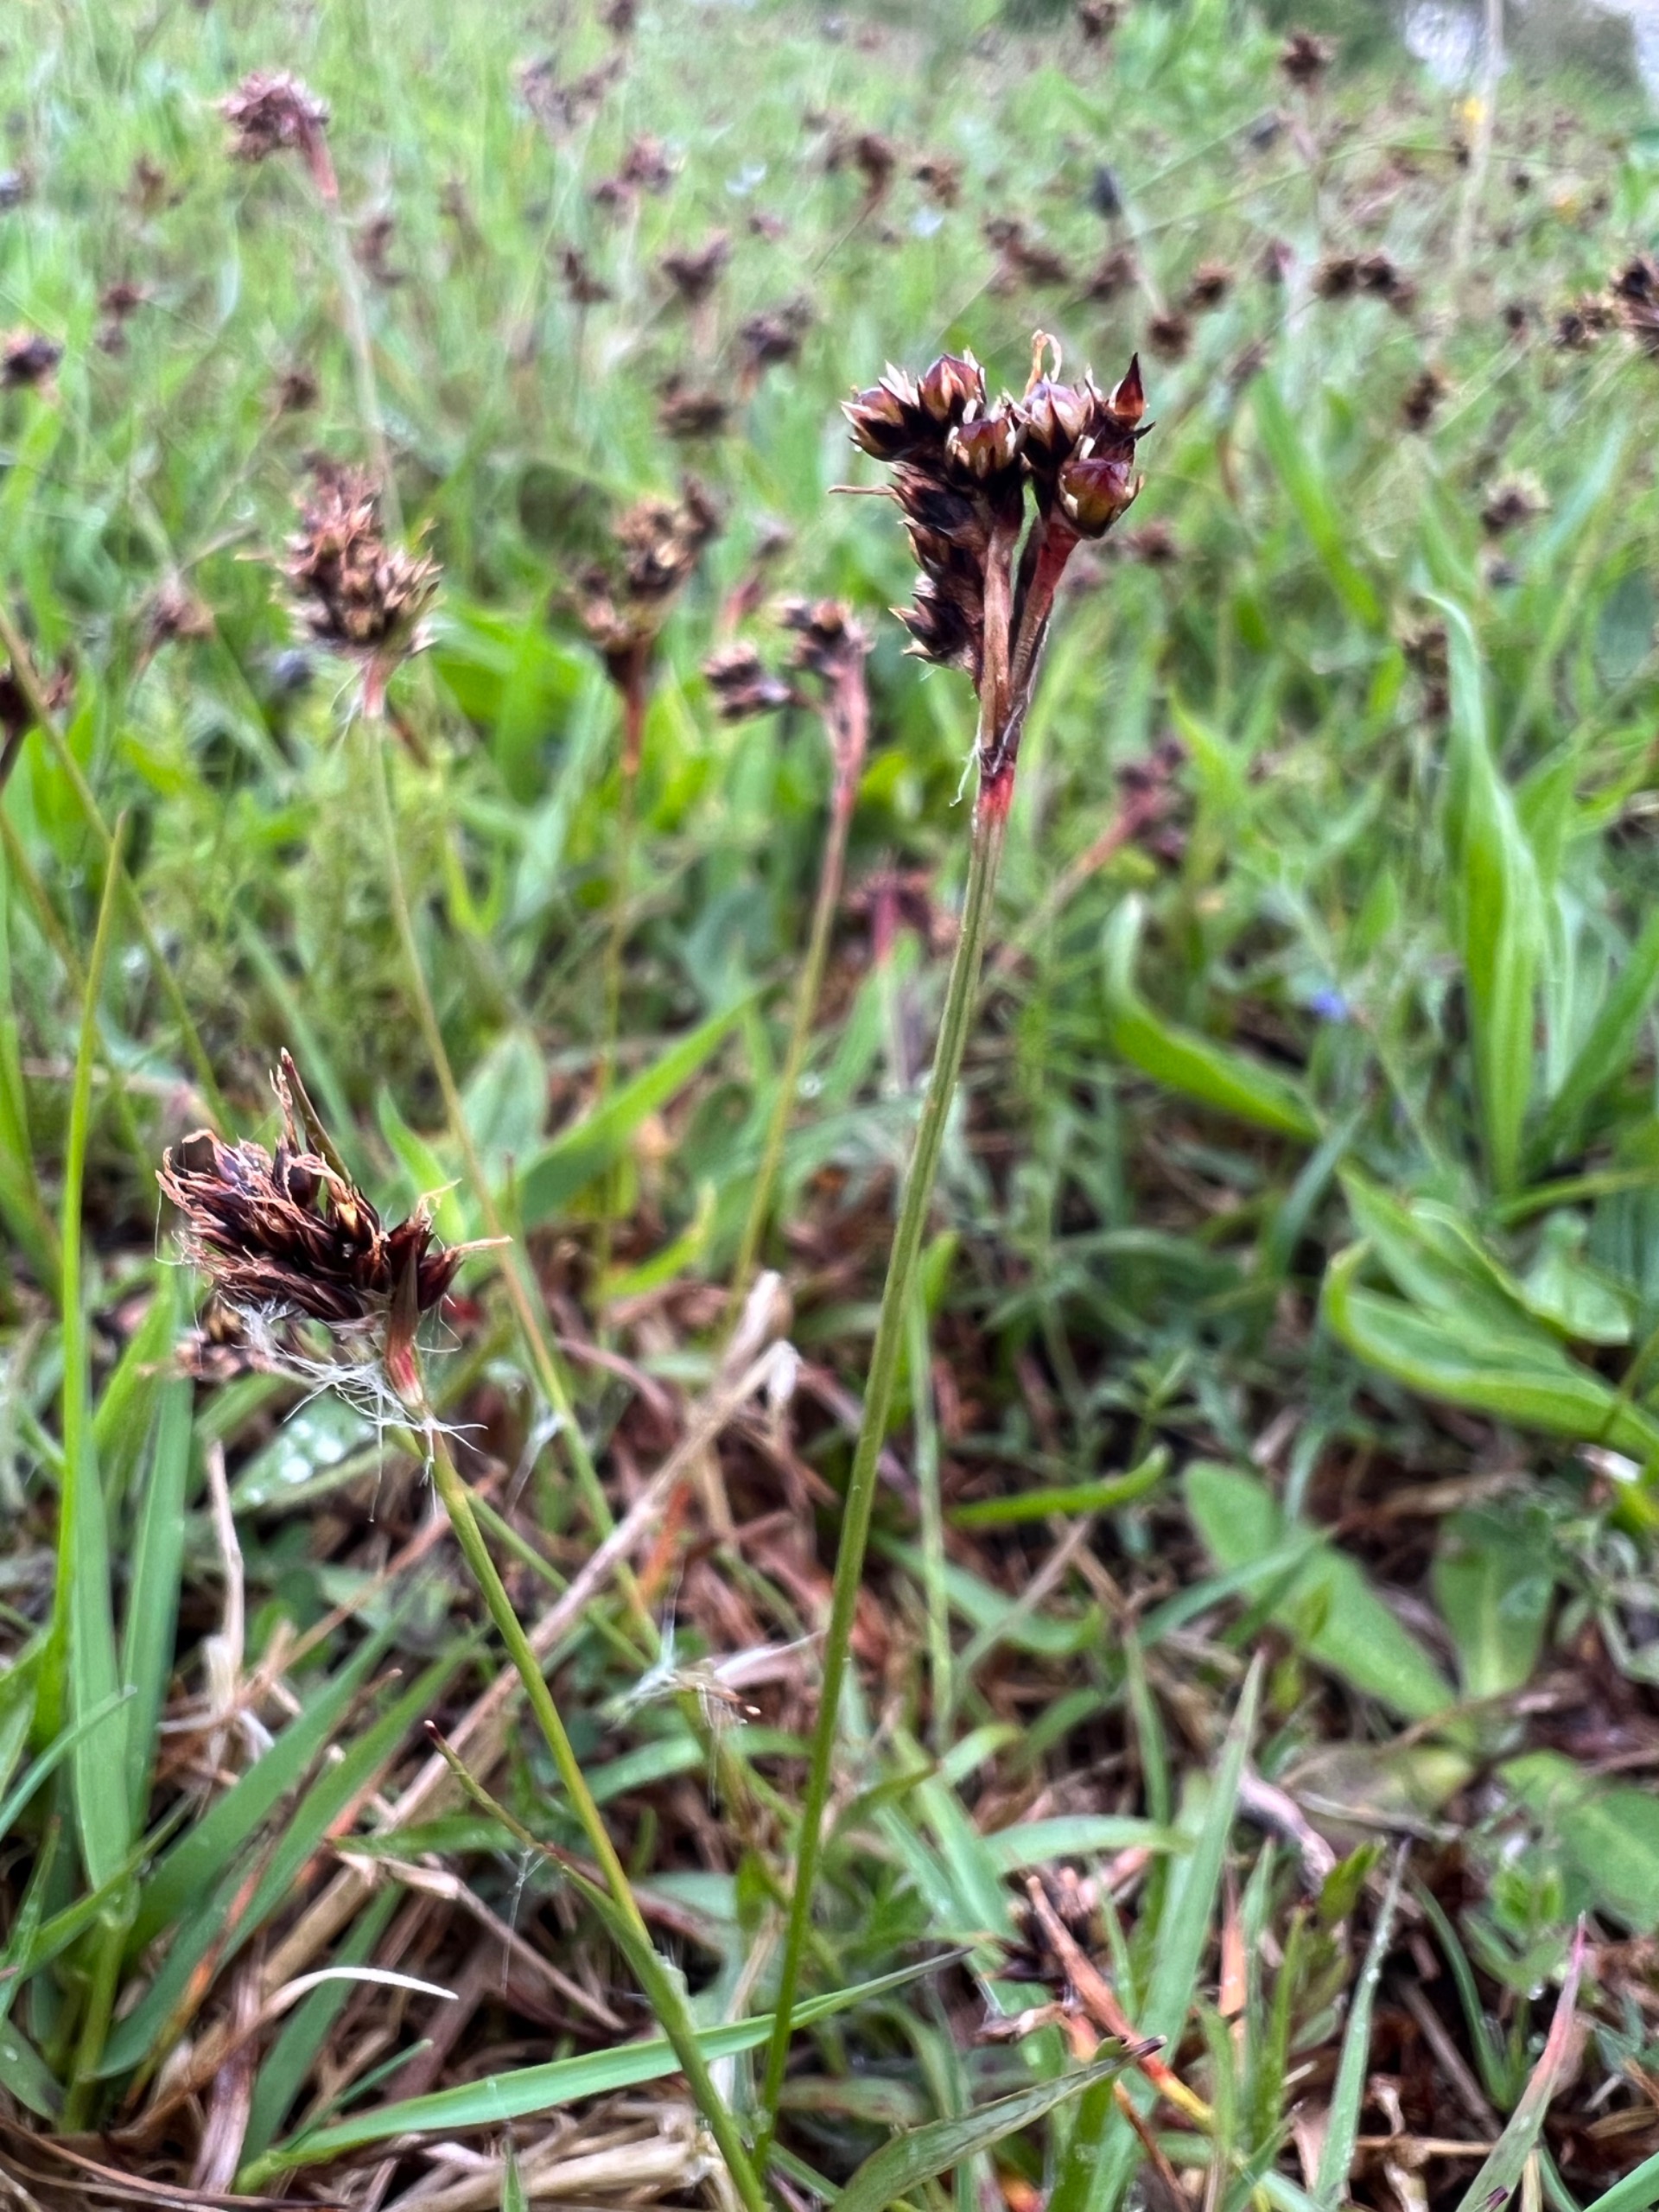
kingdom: Plantae
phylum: Tracheophyta
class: Liliopsida
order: Poales
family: Juncaceae
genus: Luzula
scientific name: Luzula campestris
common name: Mark-frytle
